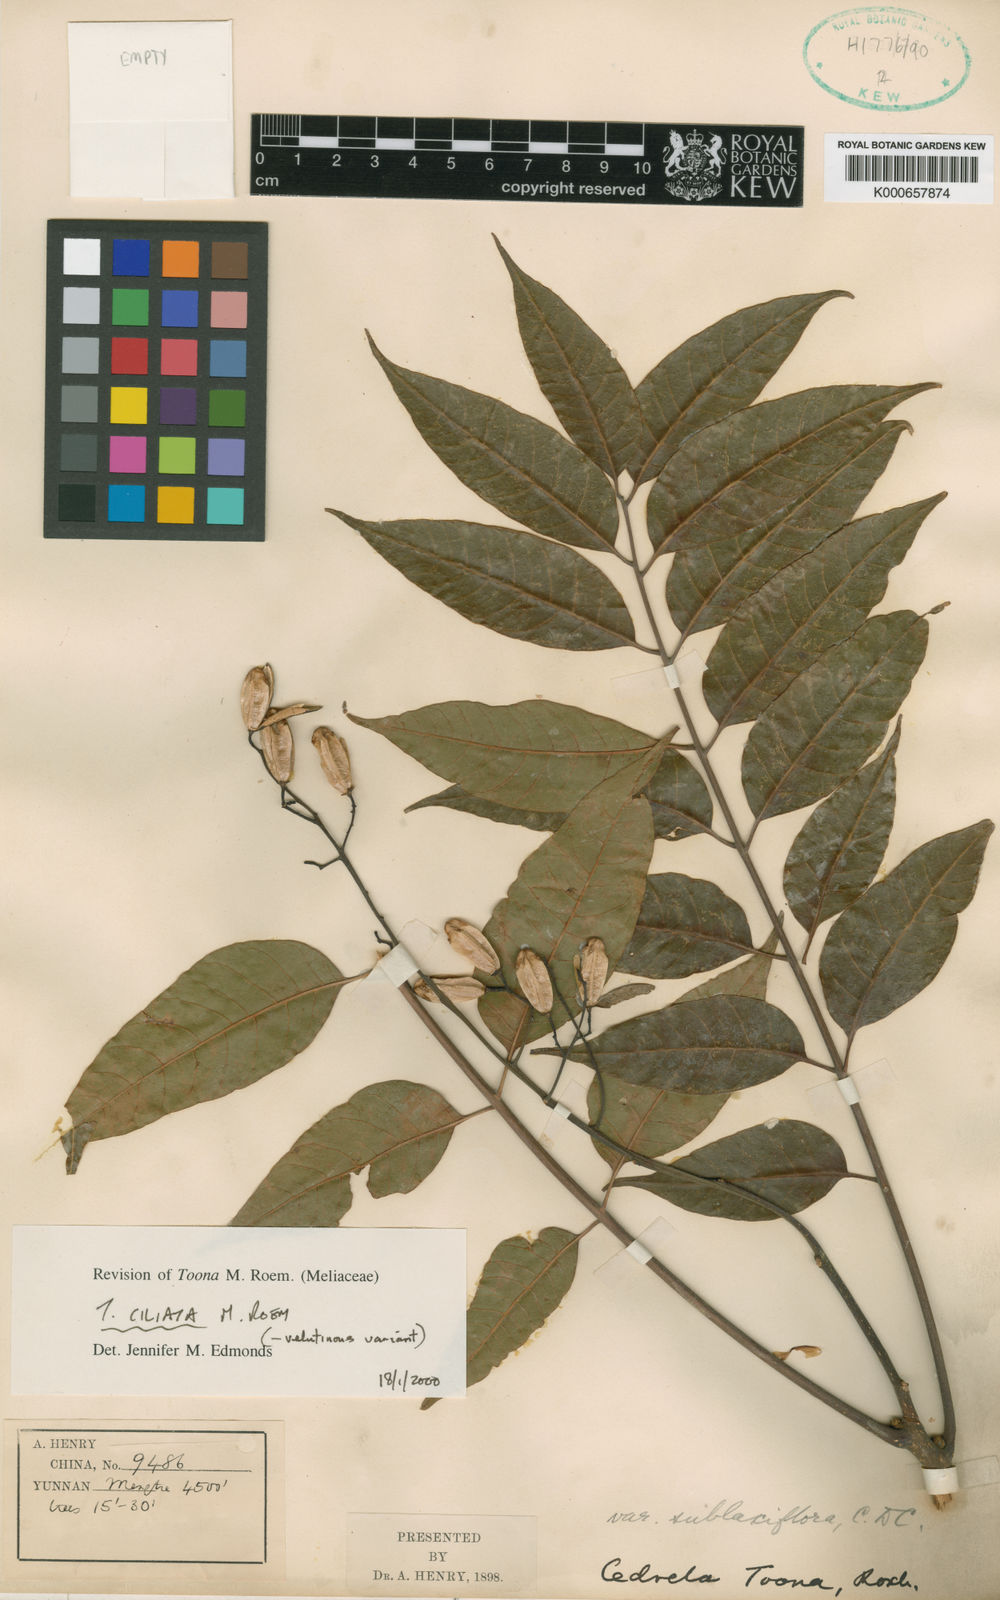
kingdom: Plantae
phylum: Tracheophyta
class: Magnoliopsida
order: Sapindales
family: Meliaceae
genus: Toona
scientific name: Toona ciliata
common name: Australian redcedar
